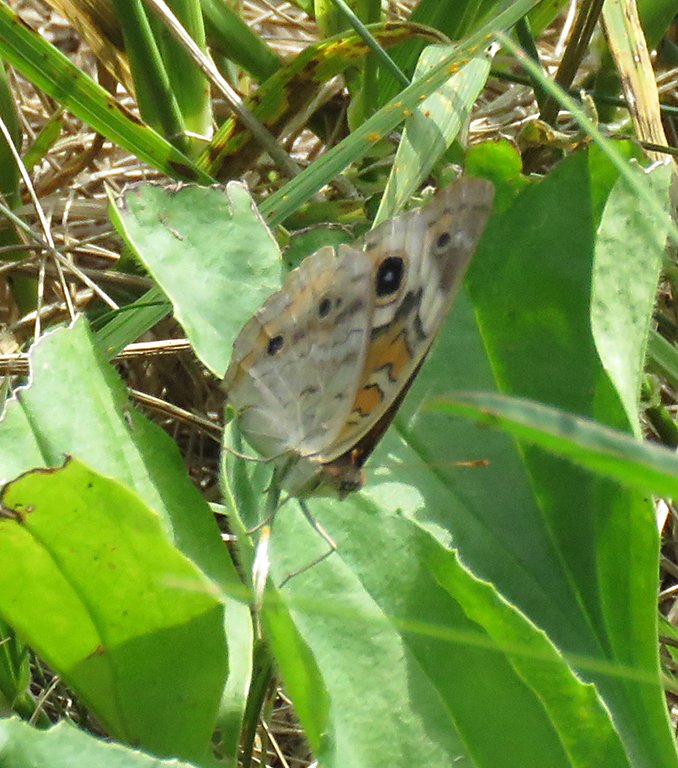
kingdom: Animalia
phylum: Arthropoda
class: Insecta
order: Lepidoptera
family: Nymphalidae
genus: Junonia
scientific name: Junonia coenia
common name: Common Buckeye
